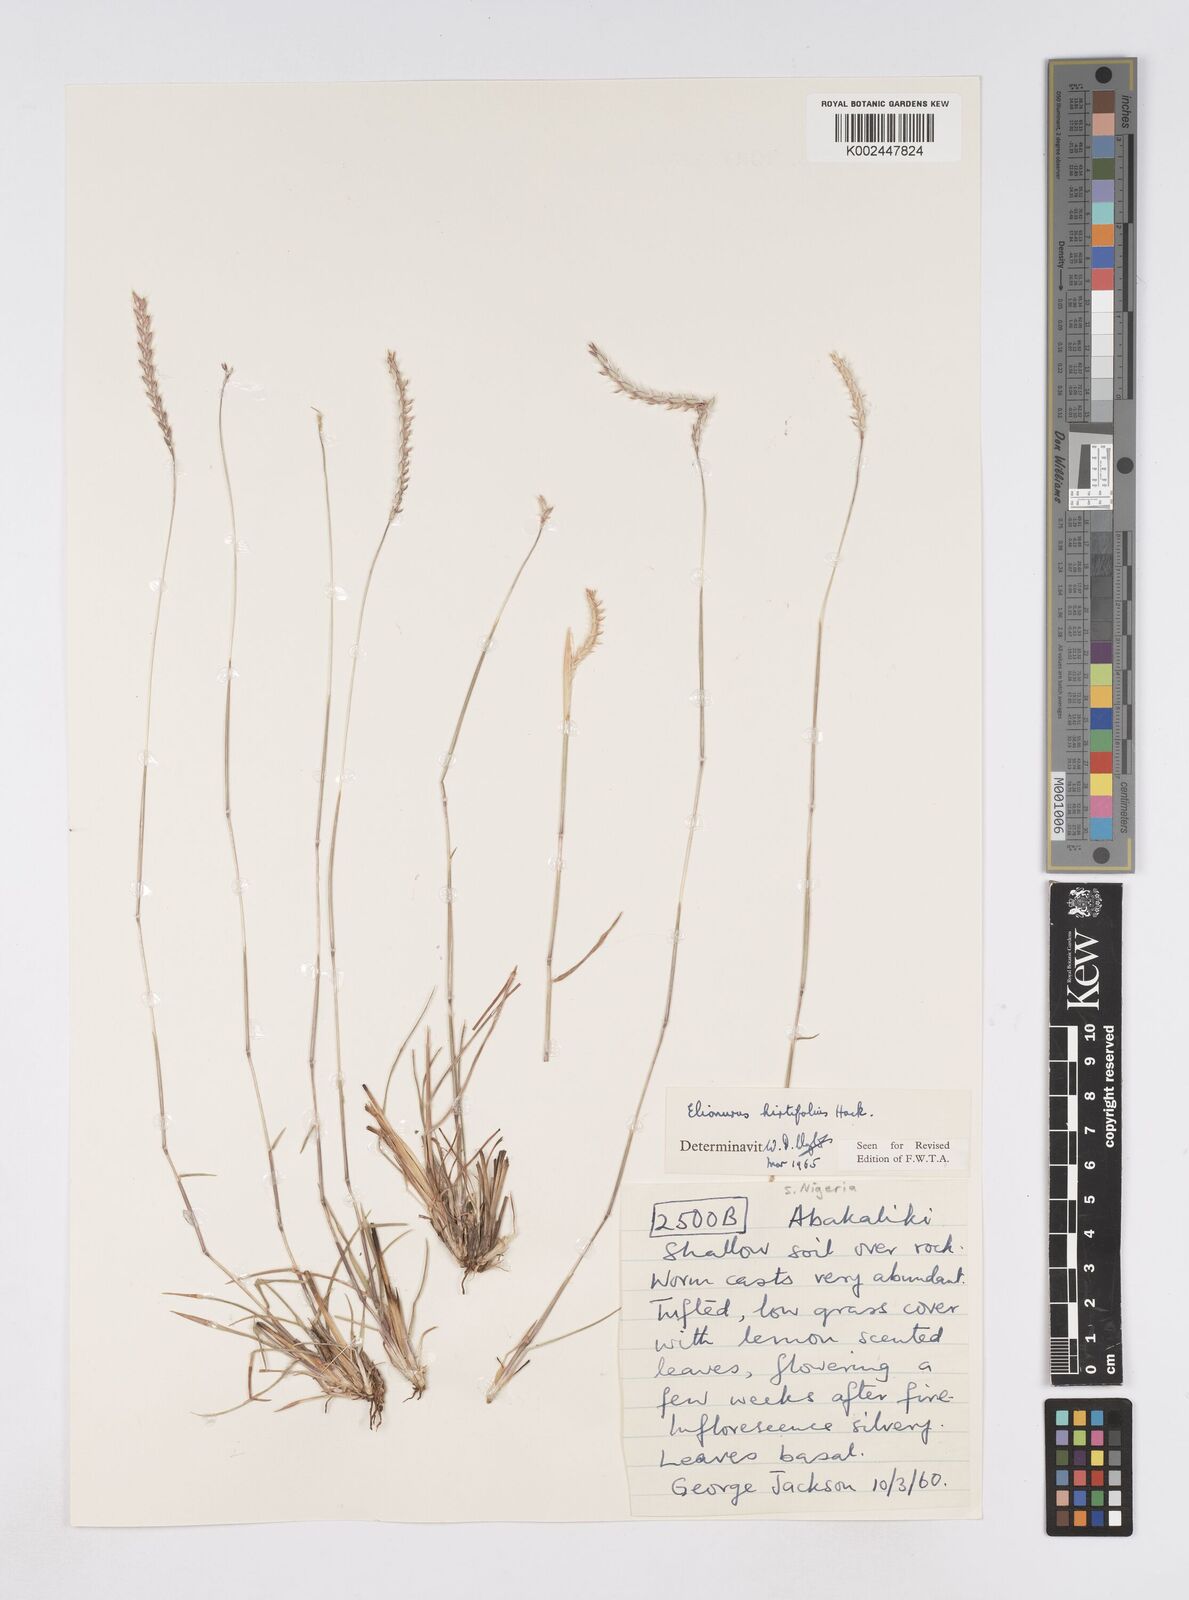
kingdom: Plantae
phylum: Tracheophyta
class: Liliopsida
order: Poales
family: Poaceae
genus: Elionurus
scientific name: Elionurus hirtifolius
